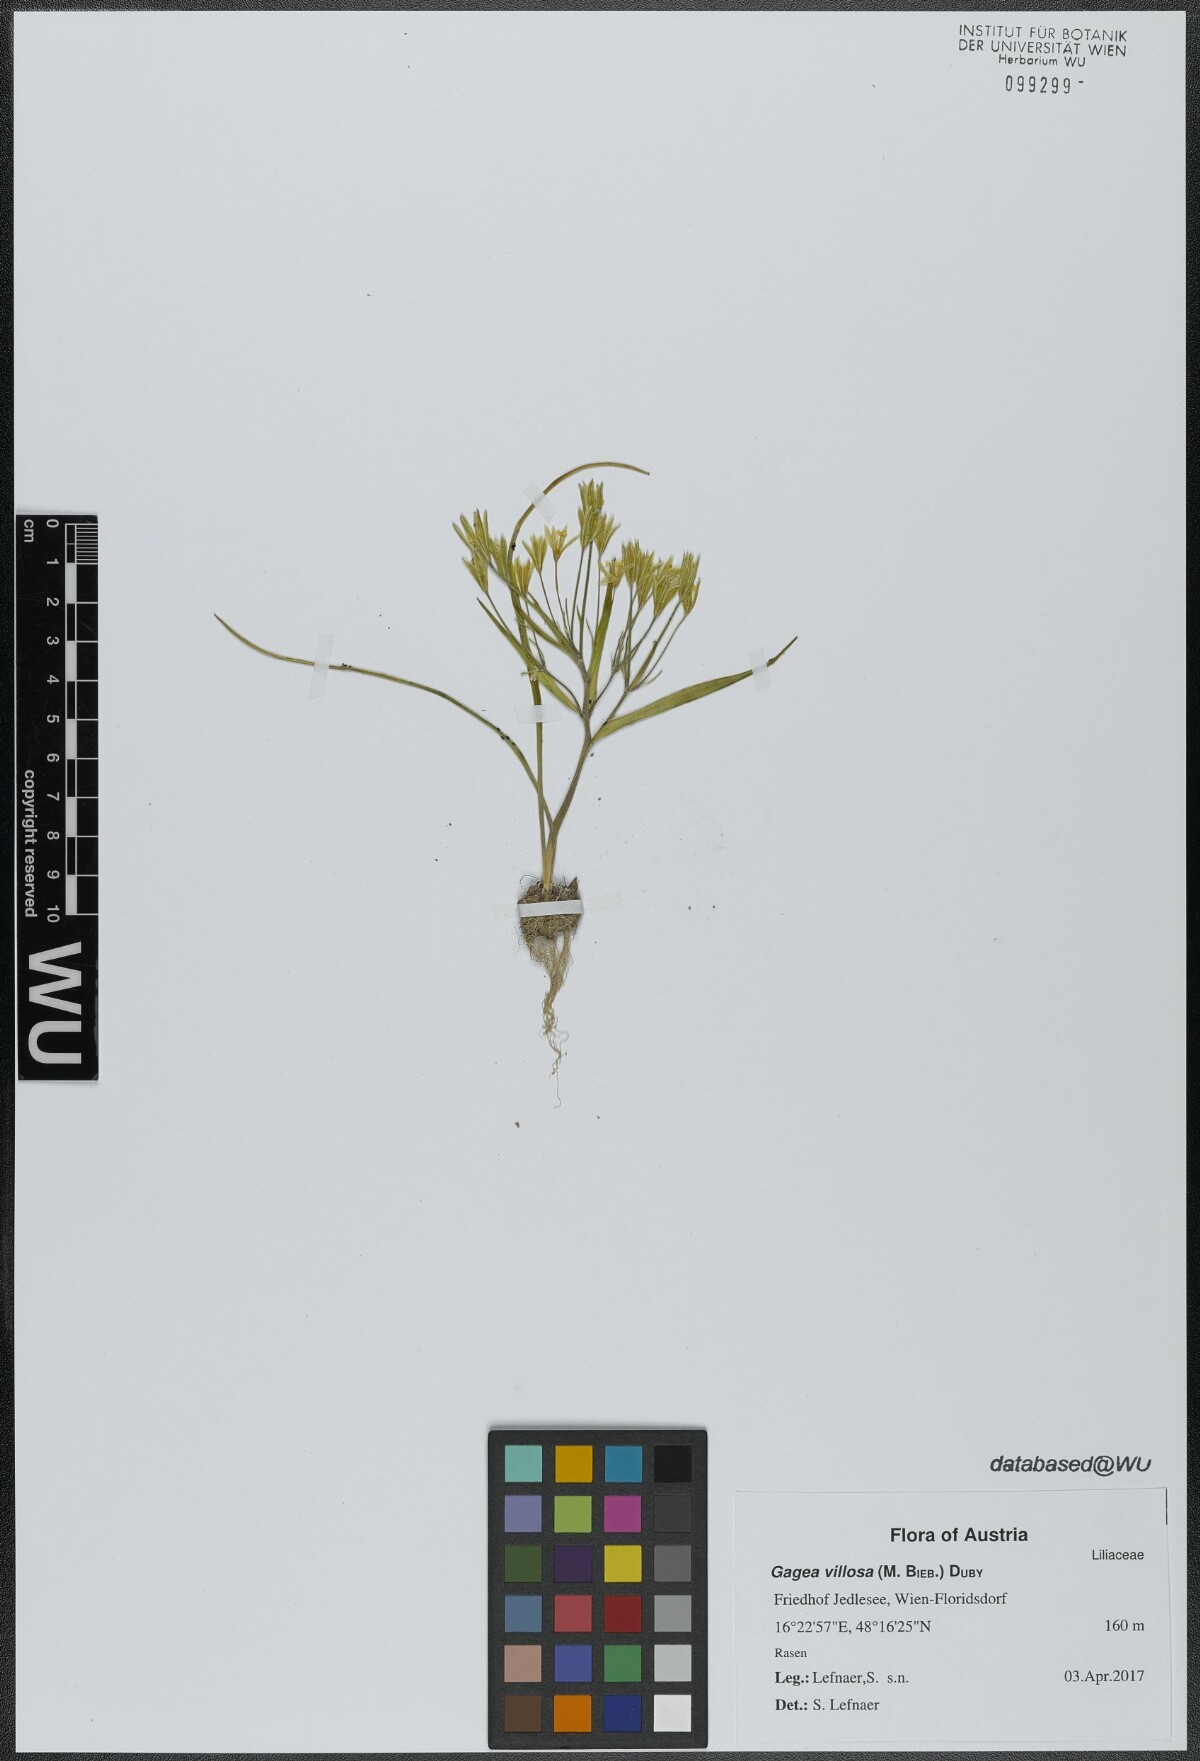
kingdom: Plantae
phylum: Tracheophyta
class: Liliopsida
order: Liliales
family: Liliaceae
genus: Gagea
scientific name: Gagea villosa
